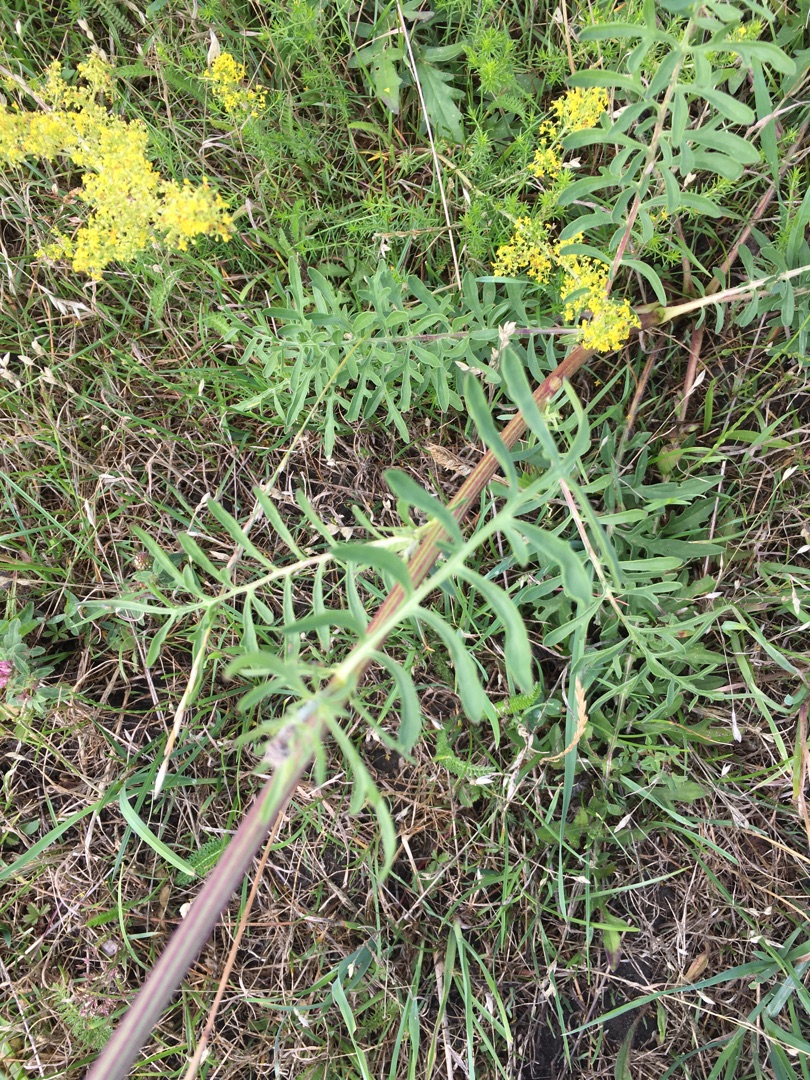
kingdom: Plantae
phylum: Tracheophyta
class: Magnoliopsida
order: Asterales
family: Asteraceae
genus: Centaurea
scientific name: Centaurea scabiosa
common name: Stor knopurt
